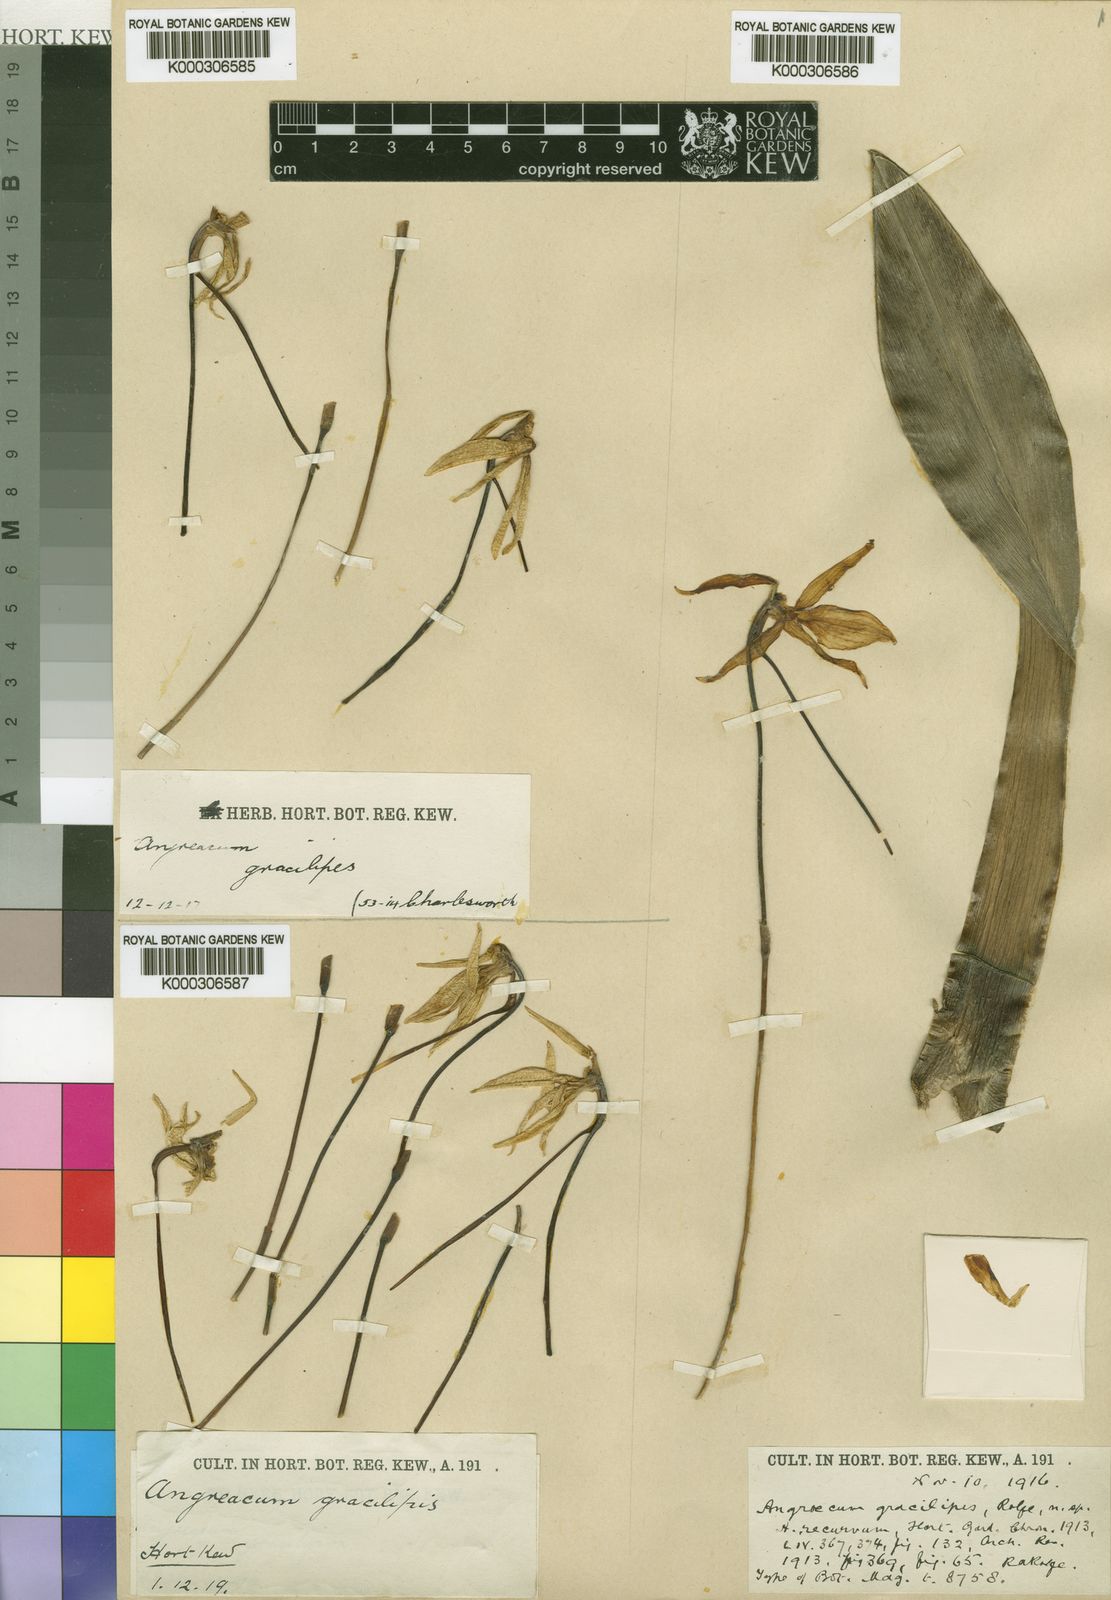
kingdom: Plantae
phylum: Tracheophyta
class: Liliopsida
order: Asparagales
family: Orchidaceae
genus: Jumellea
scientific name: Jumellea arachnantha
